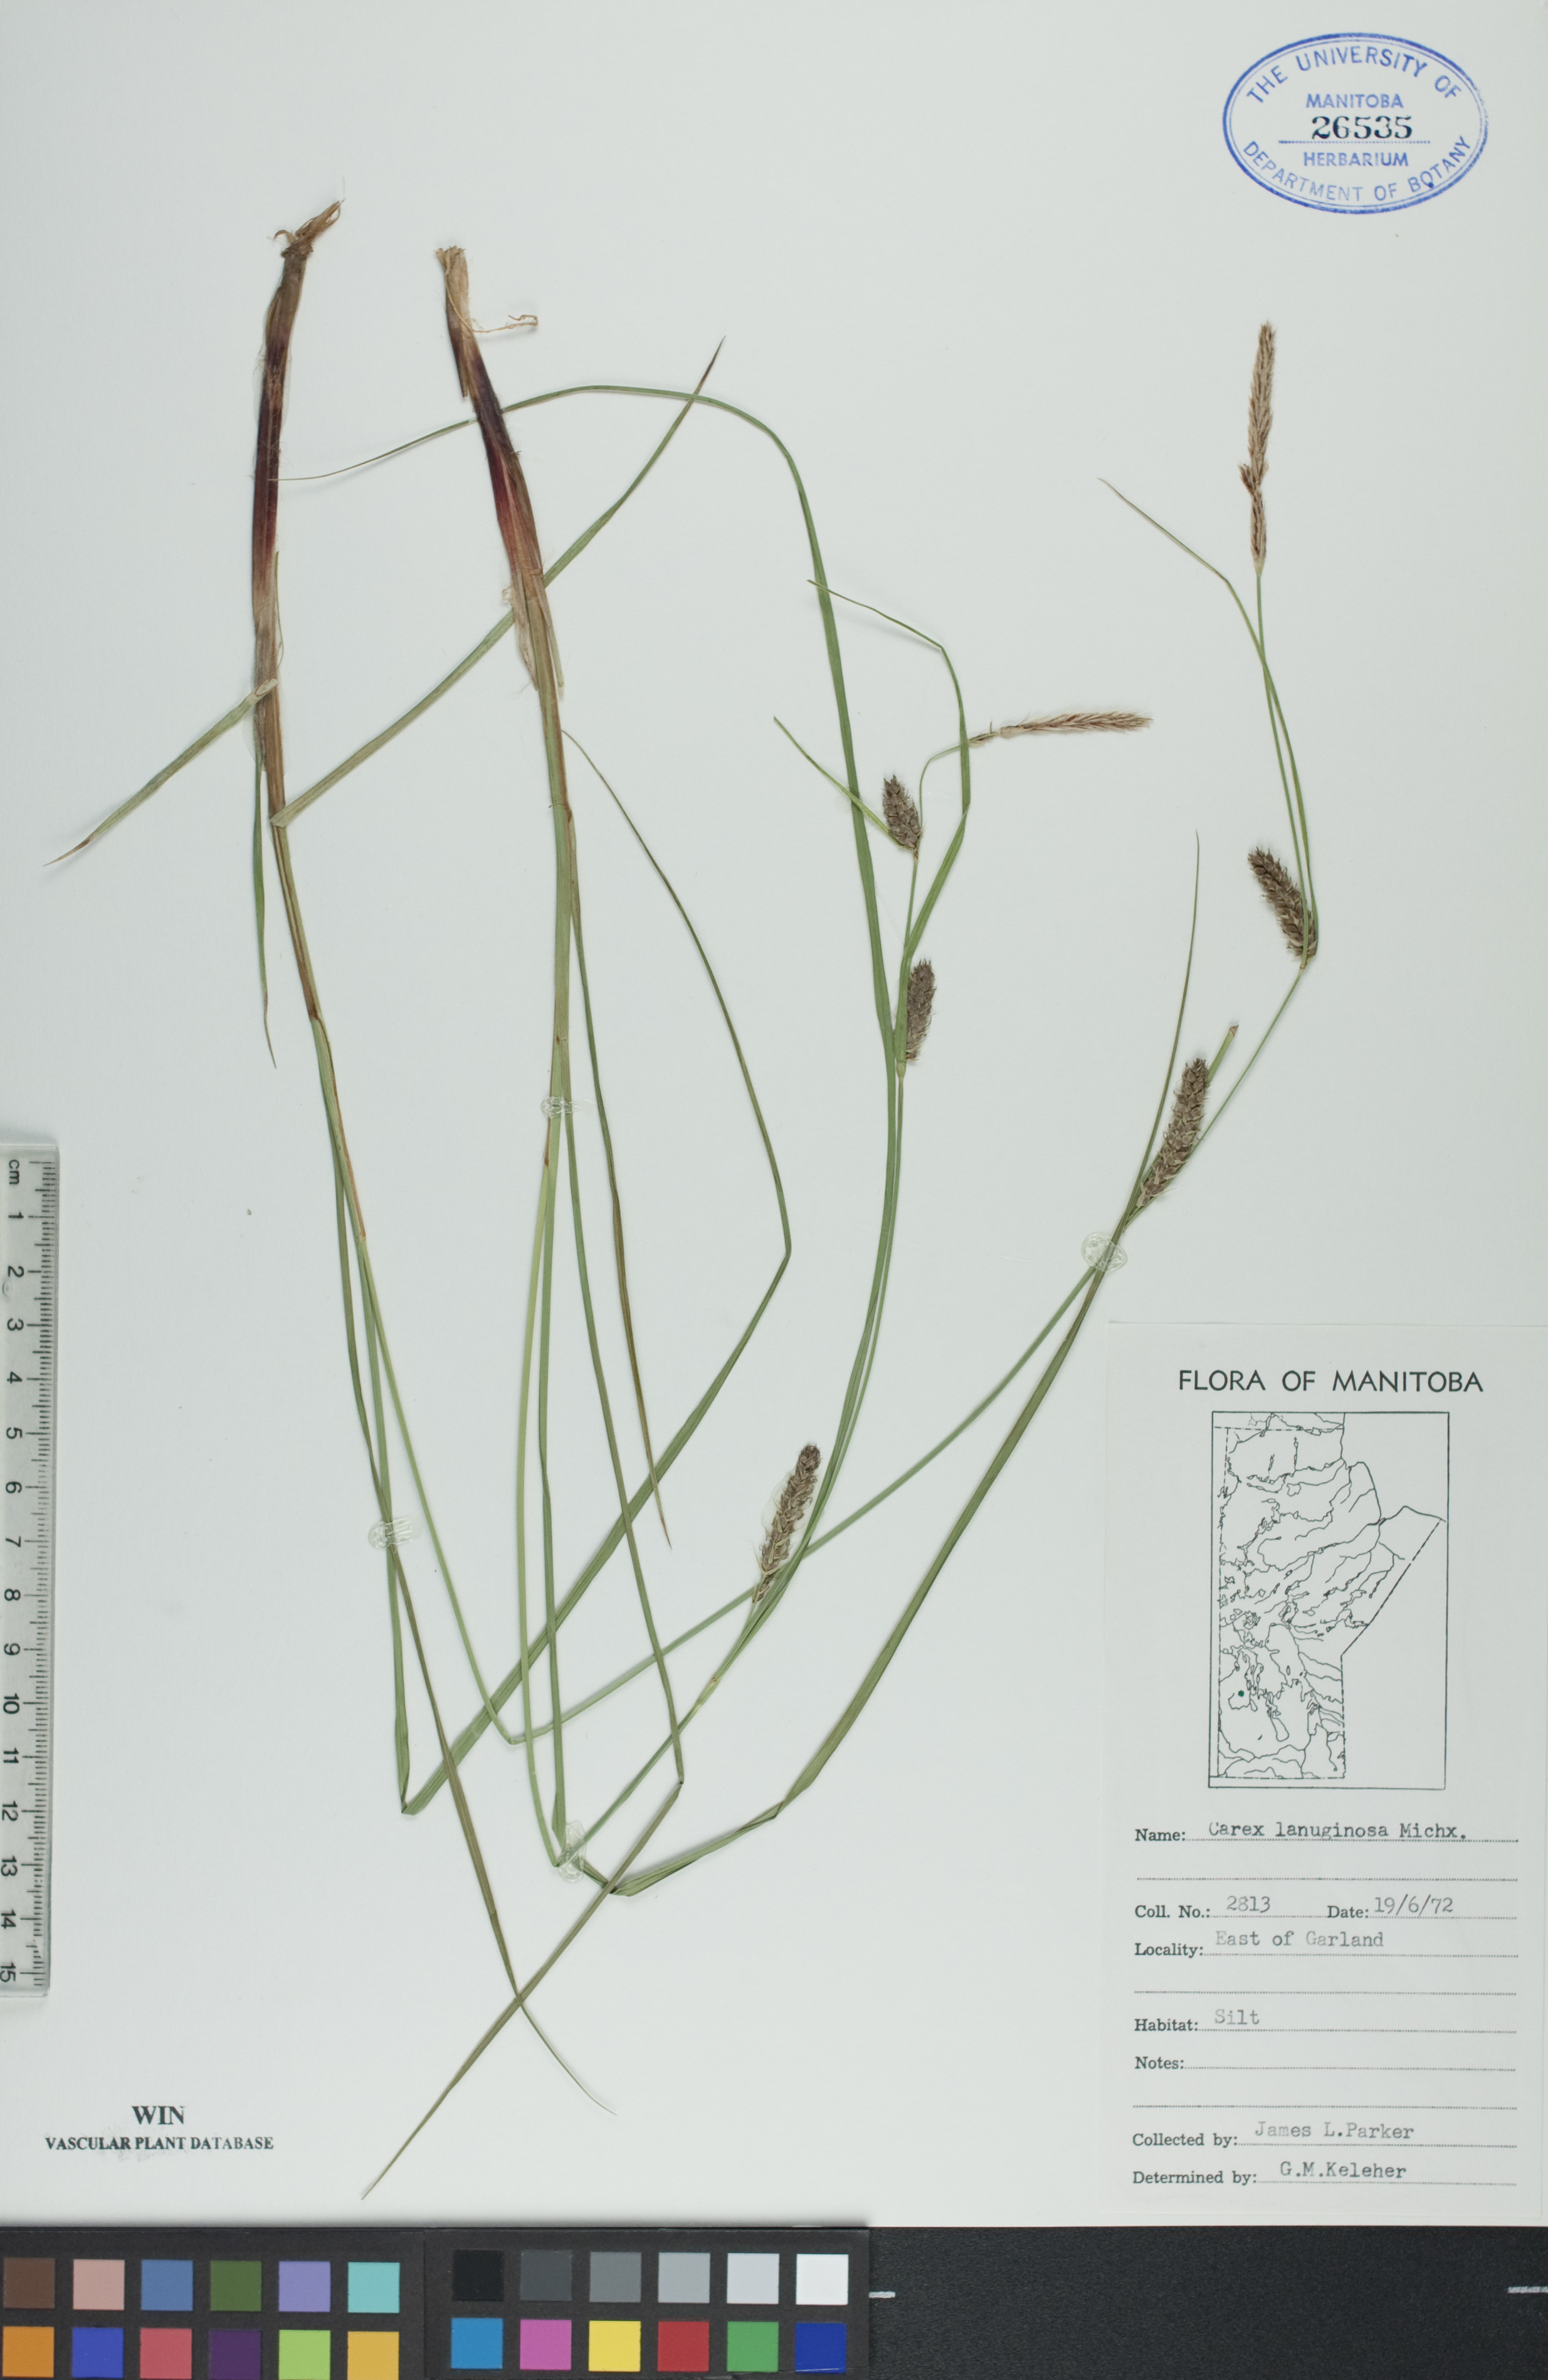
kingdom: Plantae
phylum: Tracheophyta
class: Liliopsida
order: Poales
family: Cyperaceae
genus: Carex
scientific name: Carex lasiocarpa
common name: Slender sedge
